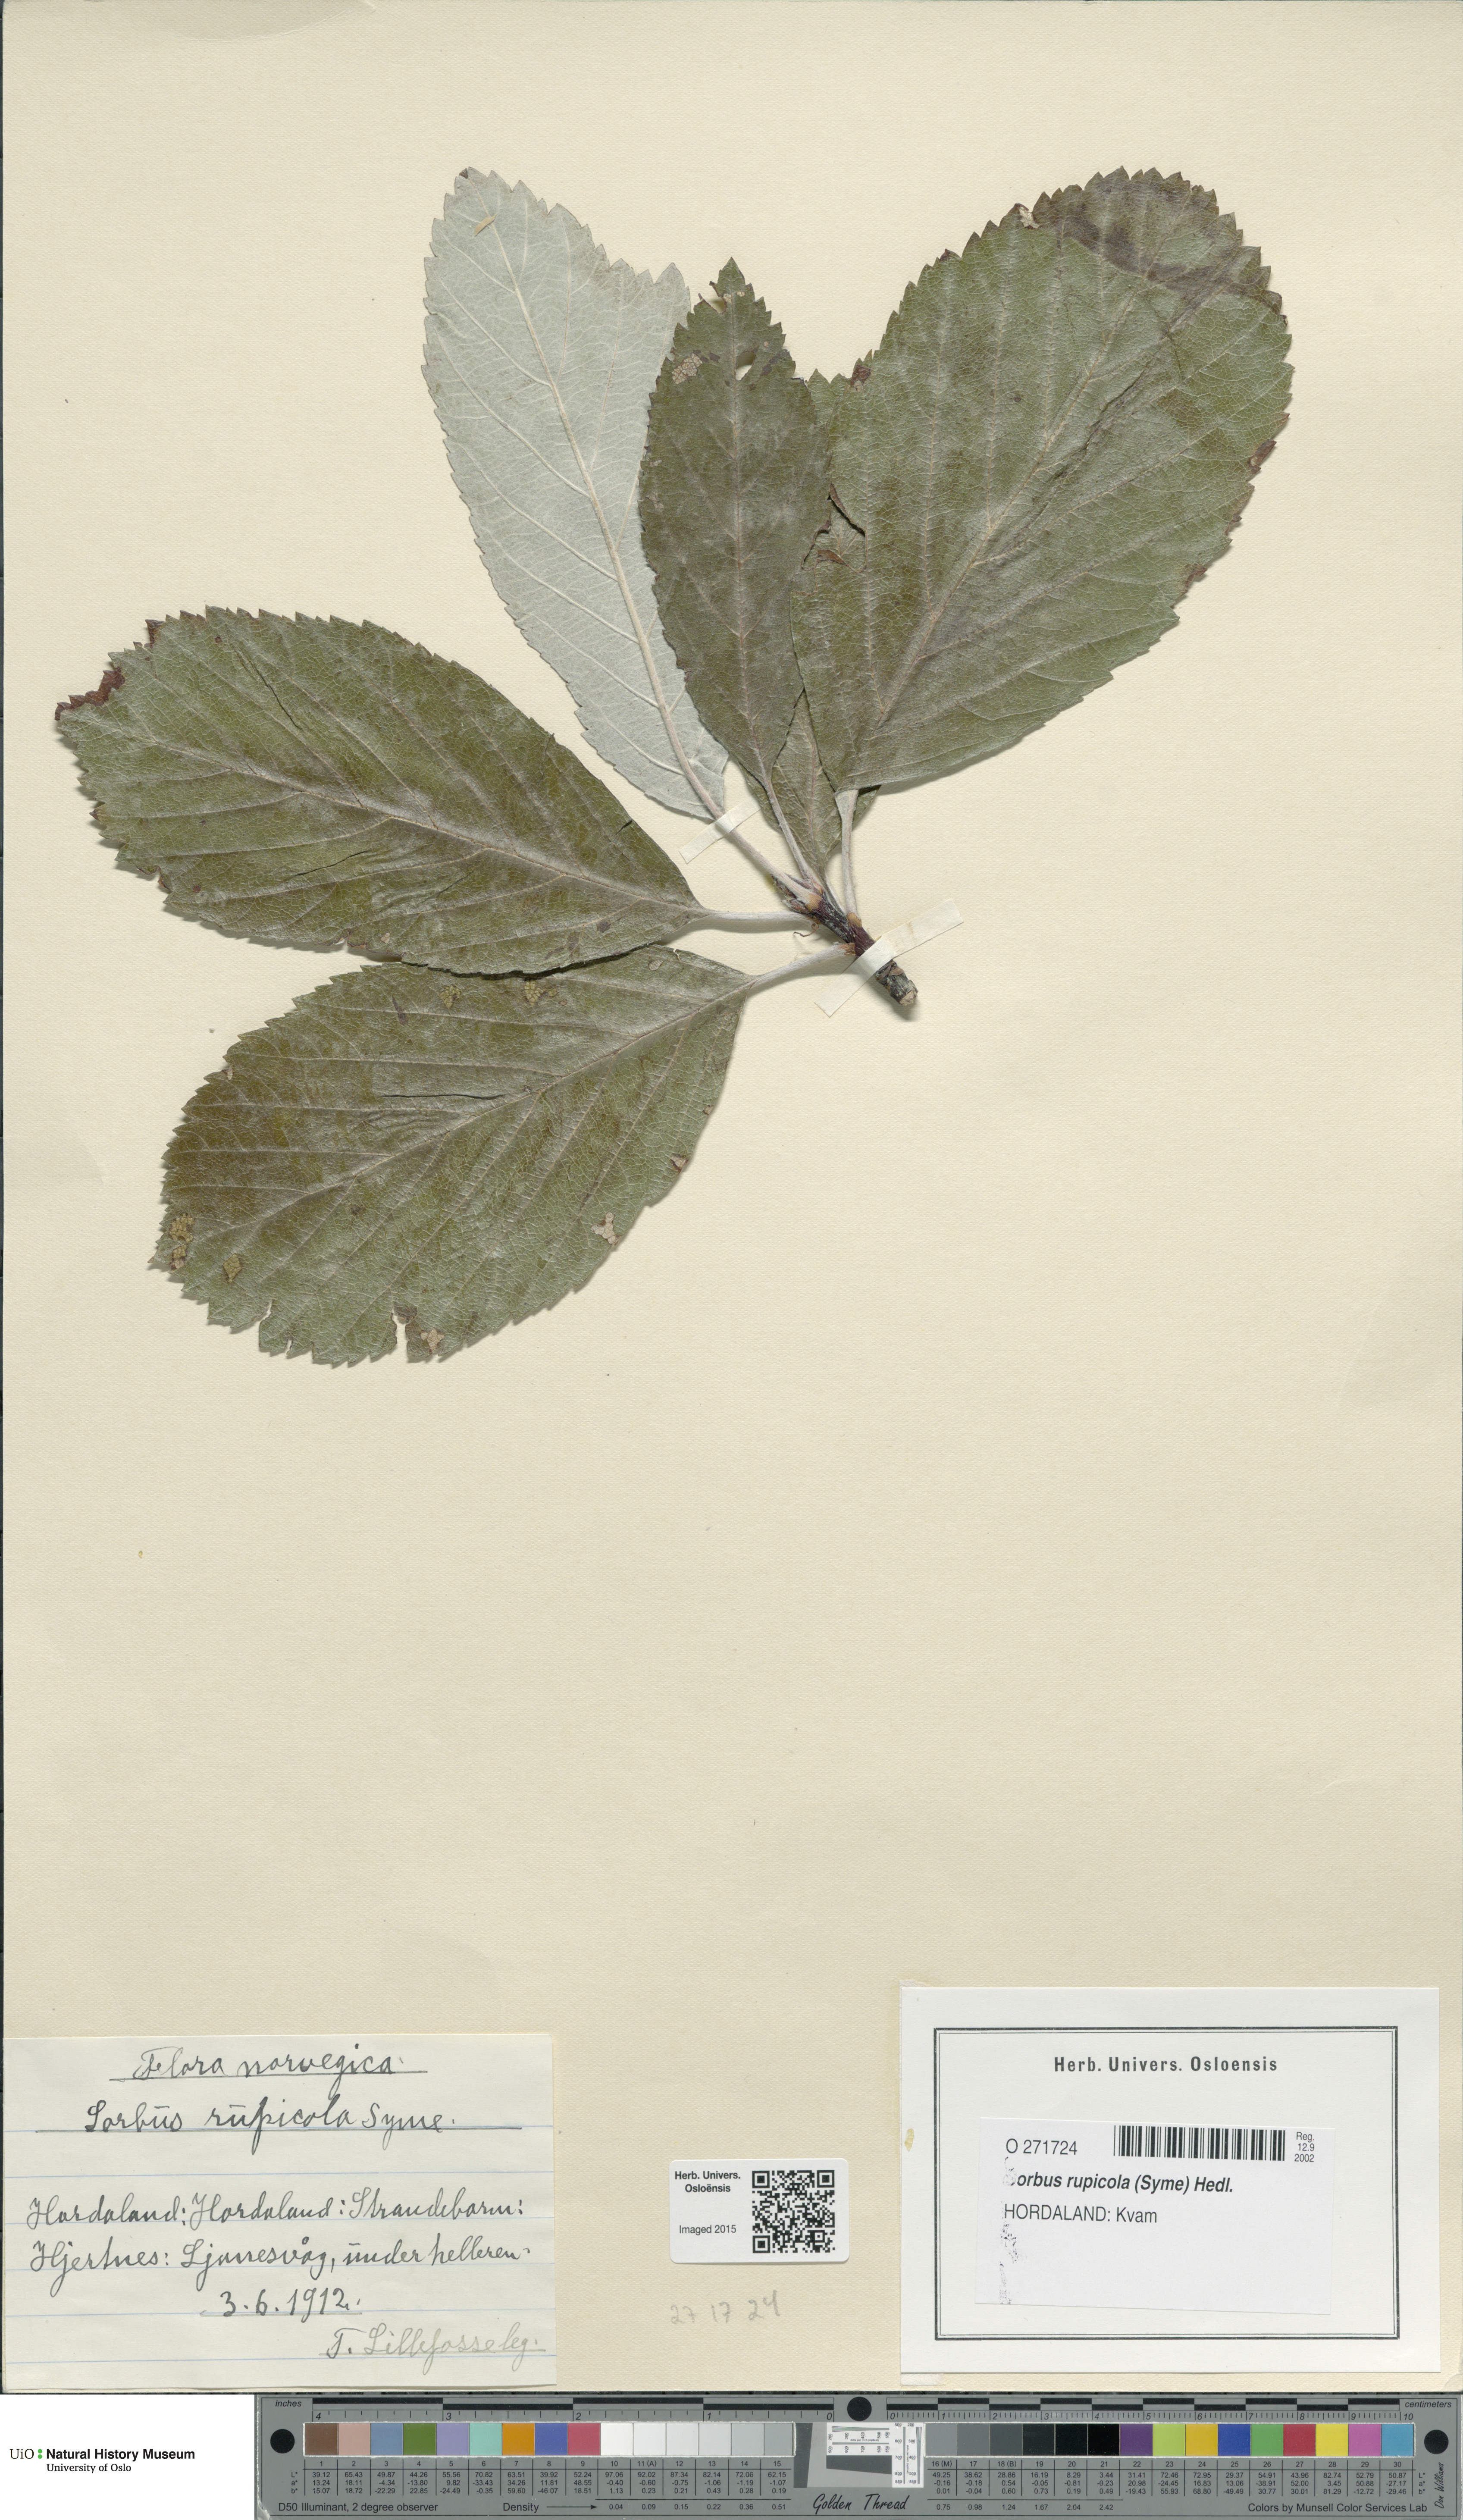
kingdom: Plantae
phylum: Tracheophyta
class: Magnoliopsida
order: Rosales
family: Rosaceae
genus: Aria
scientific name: Aria rupicola
